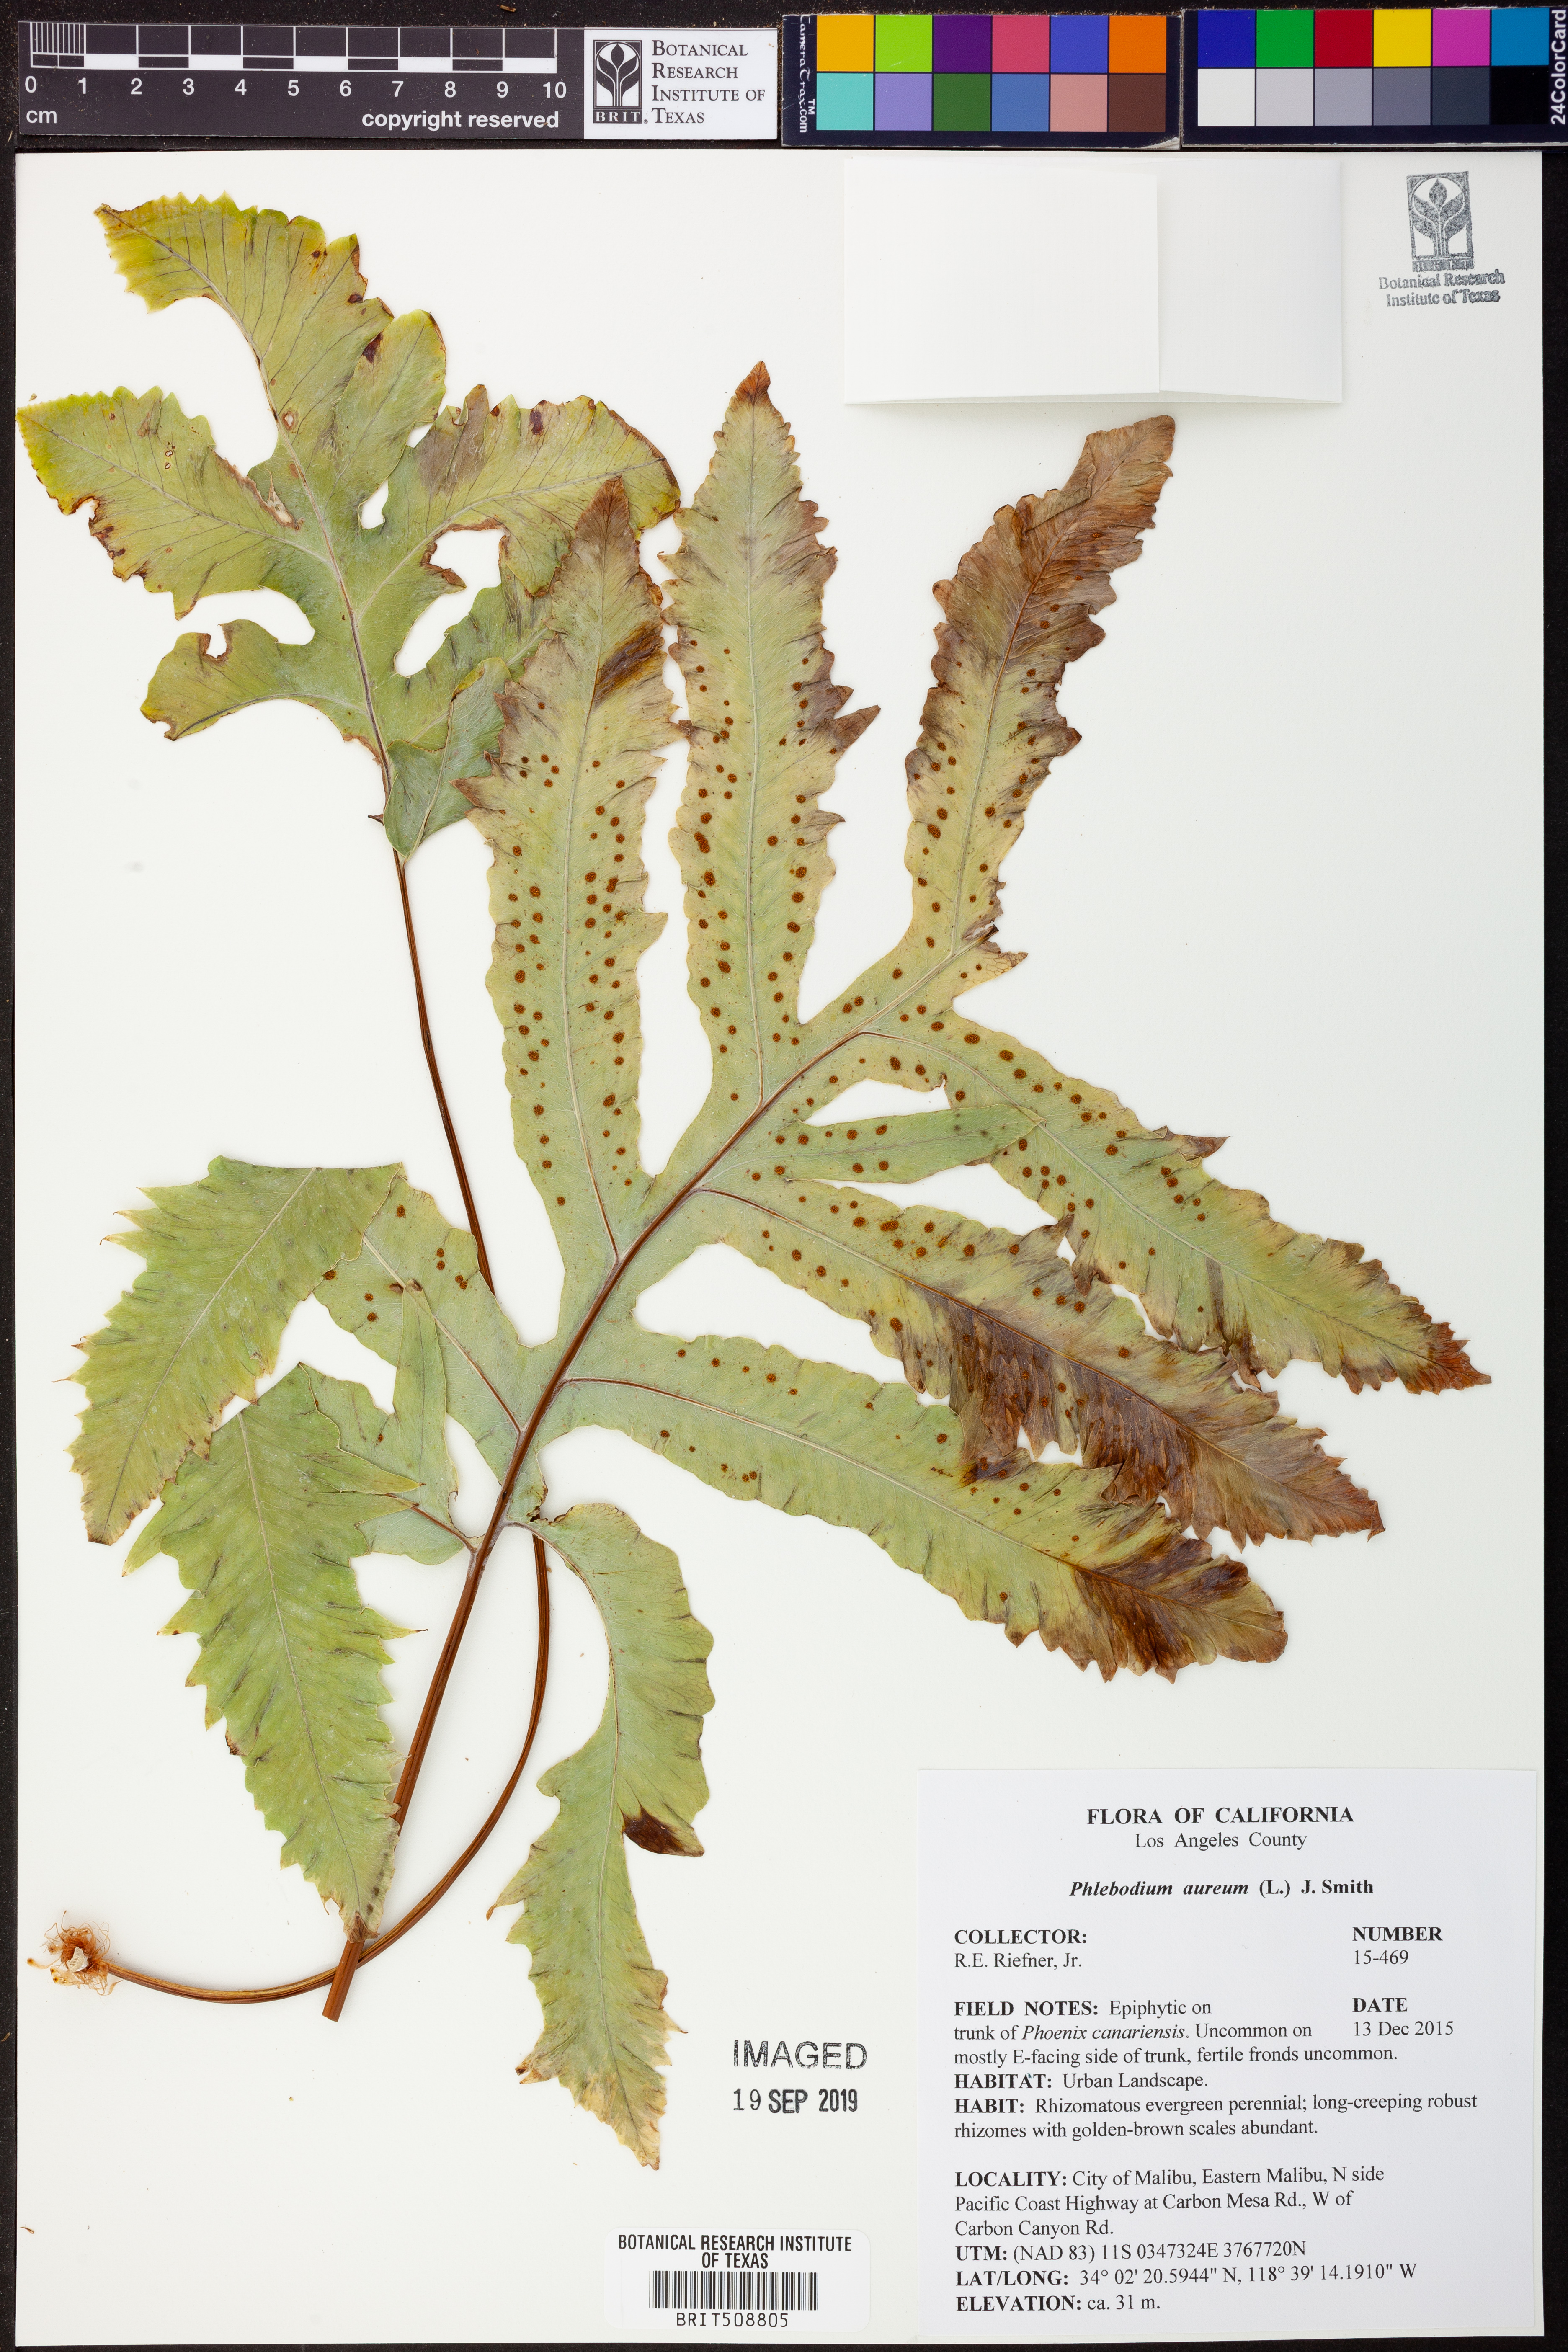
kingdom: Plantae
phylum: Tracheophyta
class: Polypodiopsida
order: Polypodiales
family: Polypodiaceae
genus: Phlebodium
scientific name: Phlebodium aureum
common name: Gold-foot fern
